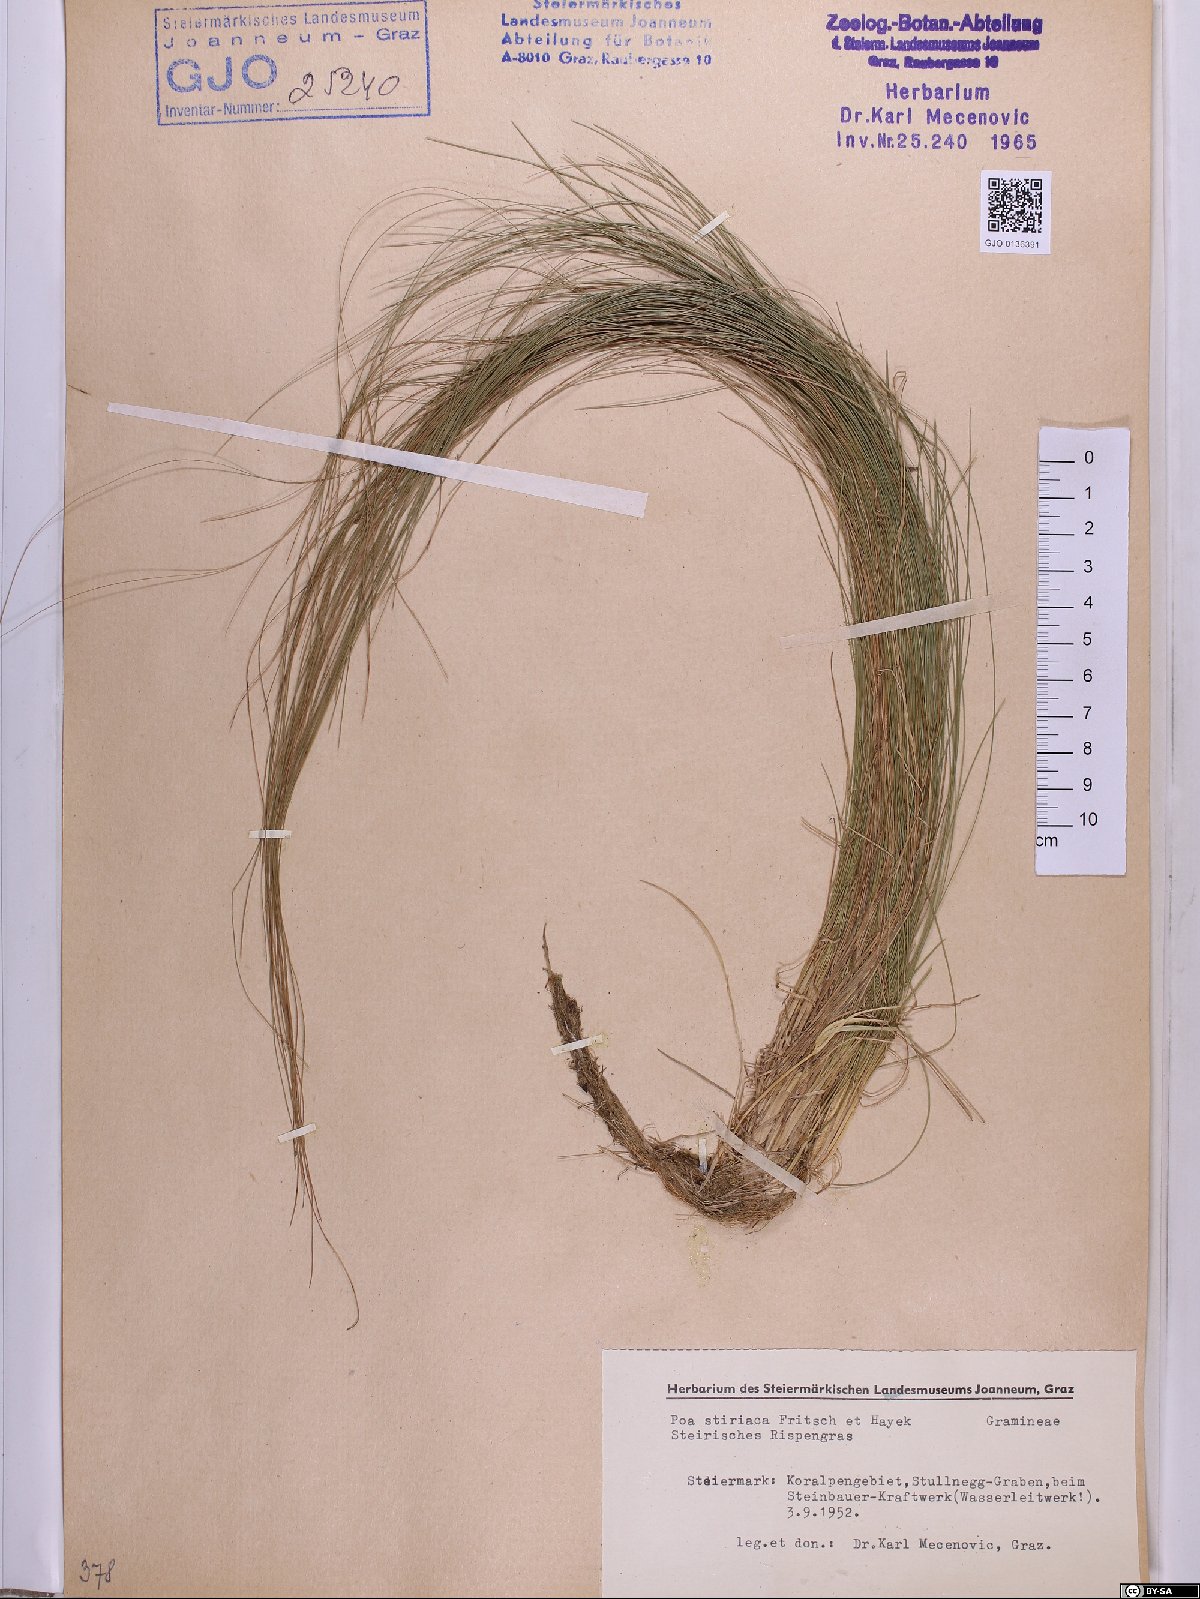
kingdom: Plantae
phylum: Tracheophyta
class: Liliopsida
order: Poales
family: Poaceae
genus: Poa
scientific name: Poa stiriaca
